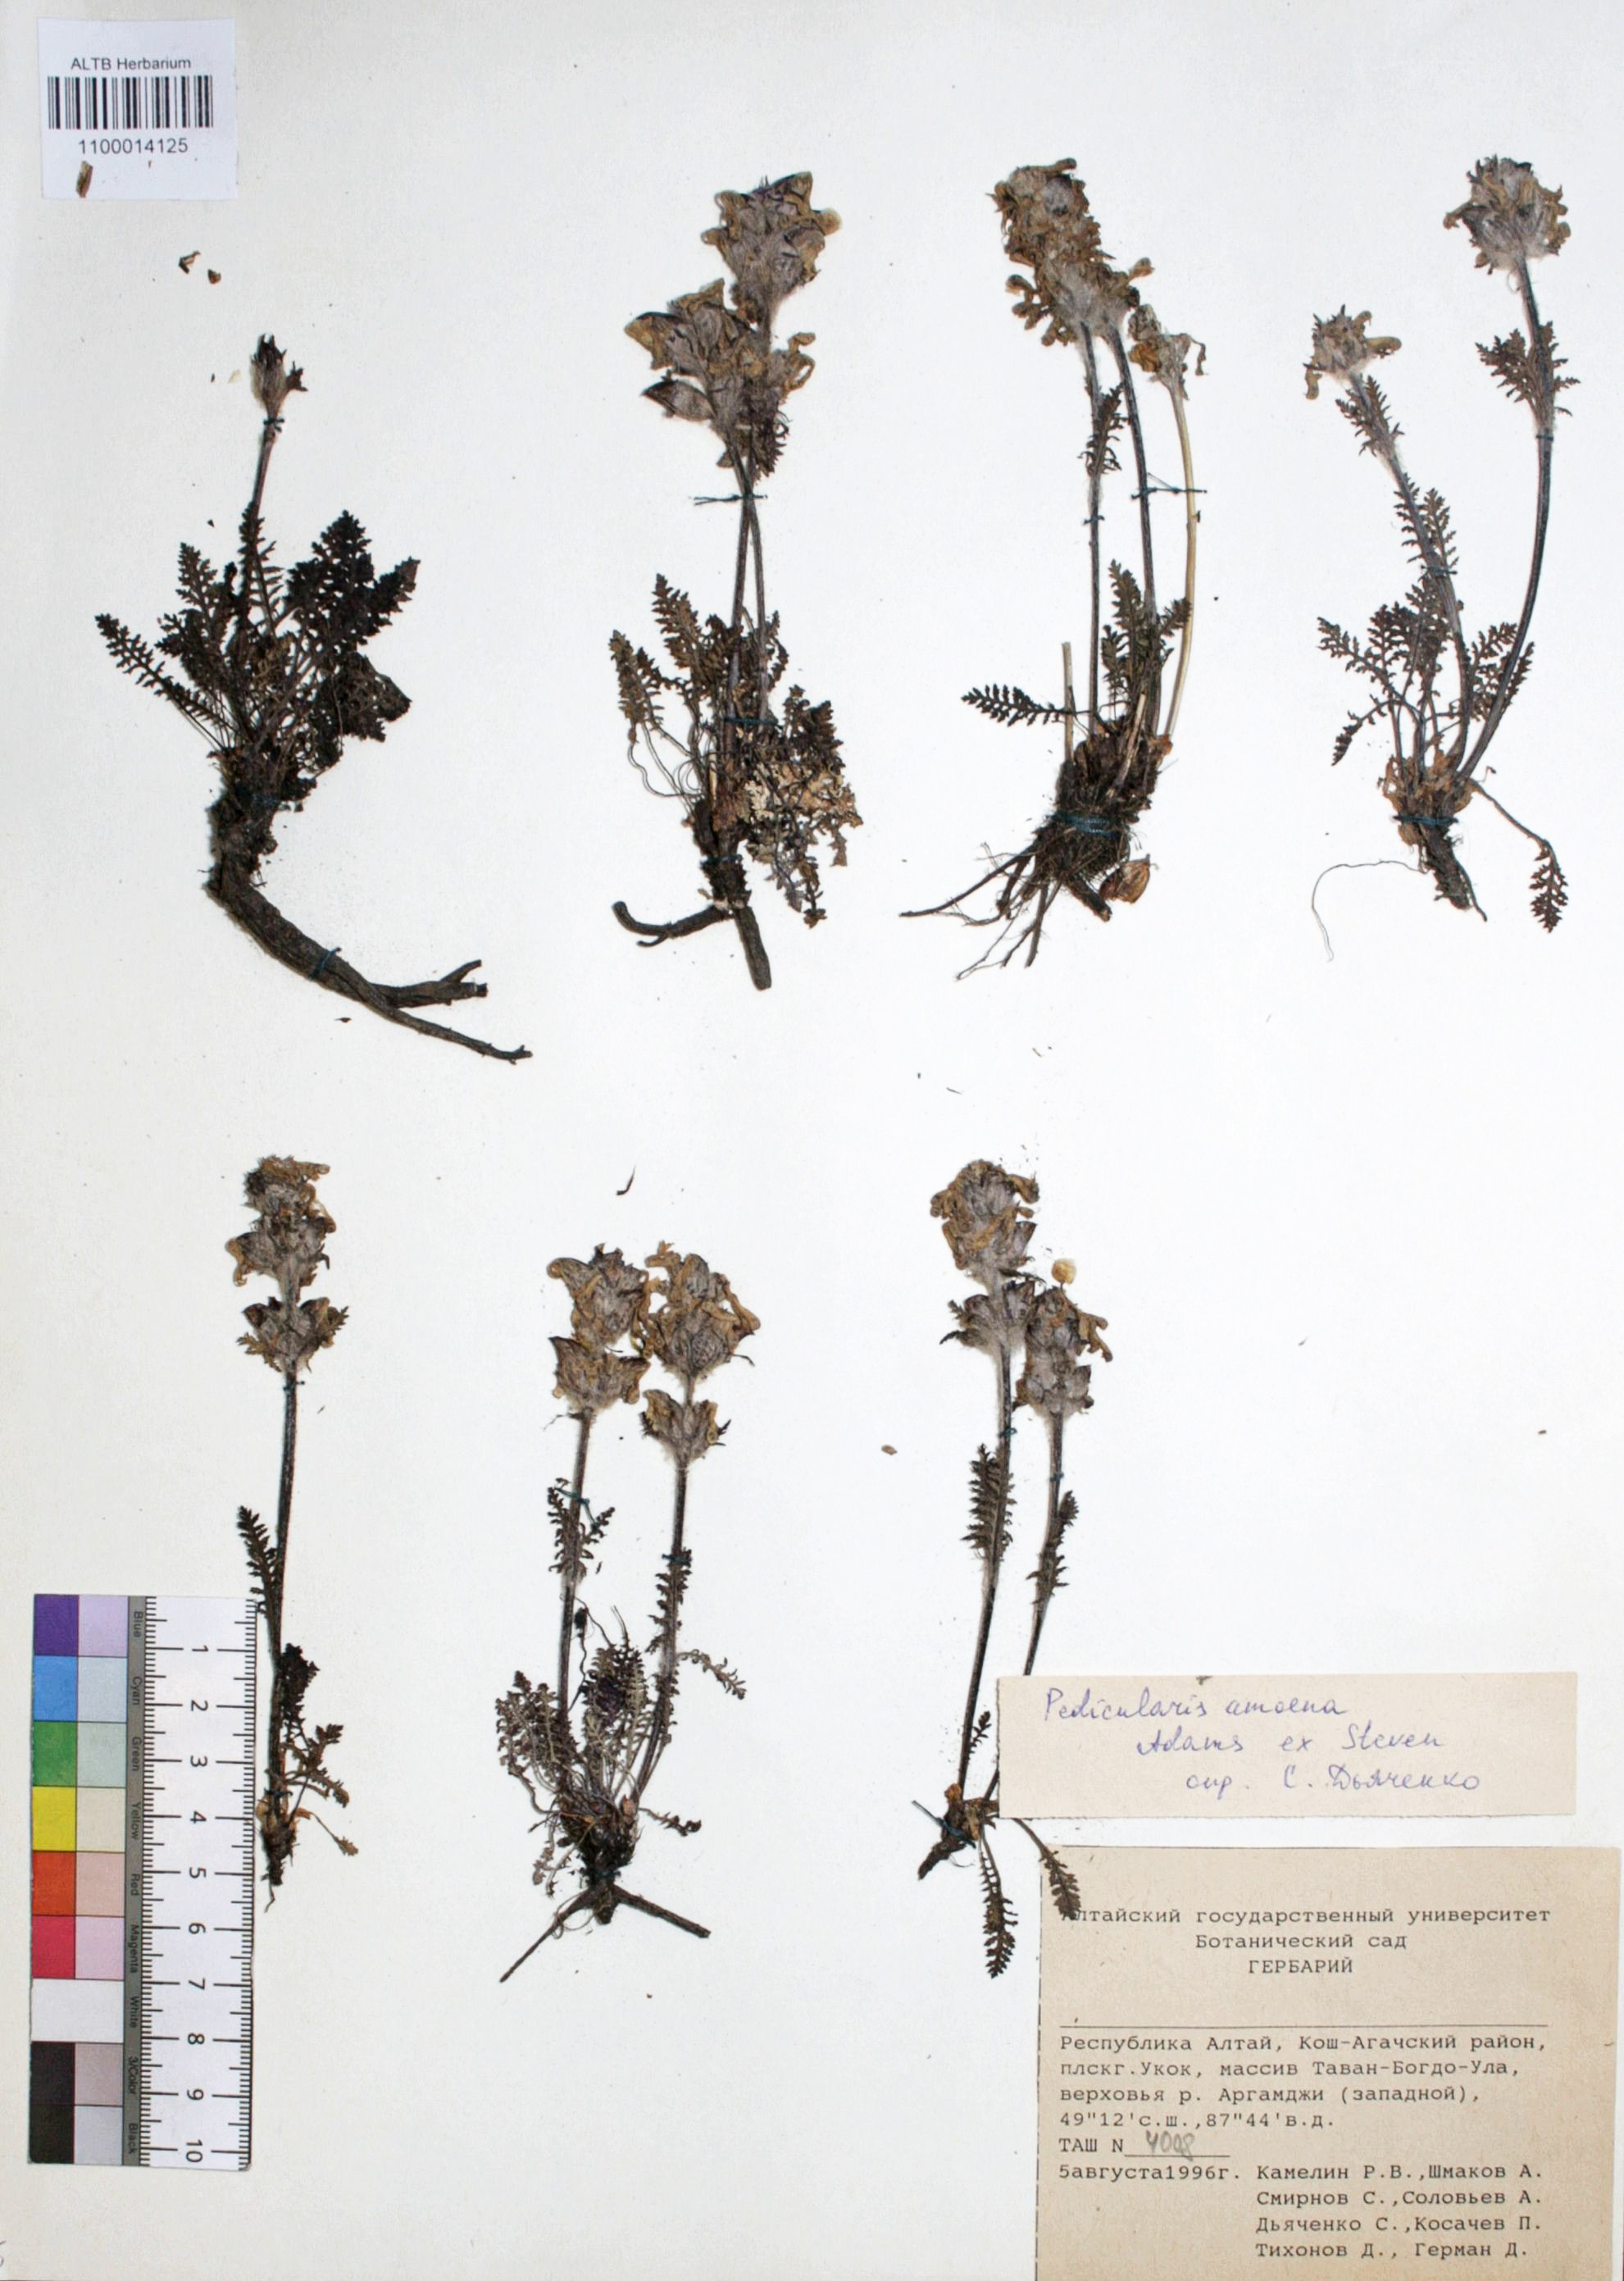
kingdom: Plantae
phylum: Tracheophyta
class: Magnoliopsida
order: Lamiales
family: Orobanchaceae
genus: Pedicularis
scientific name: Pedicularis amoena
